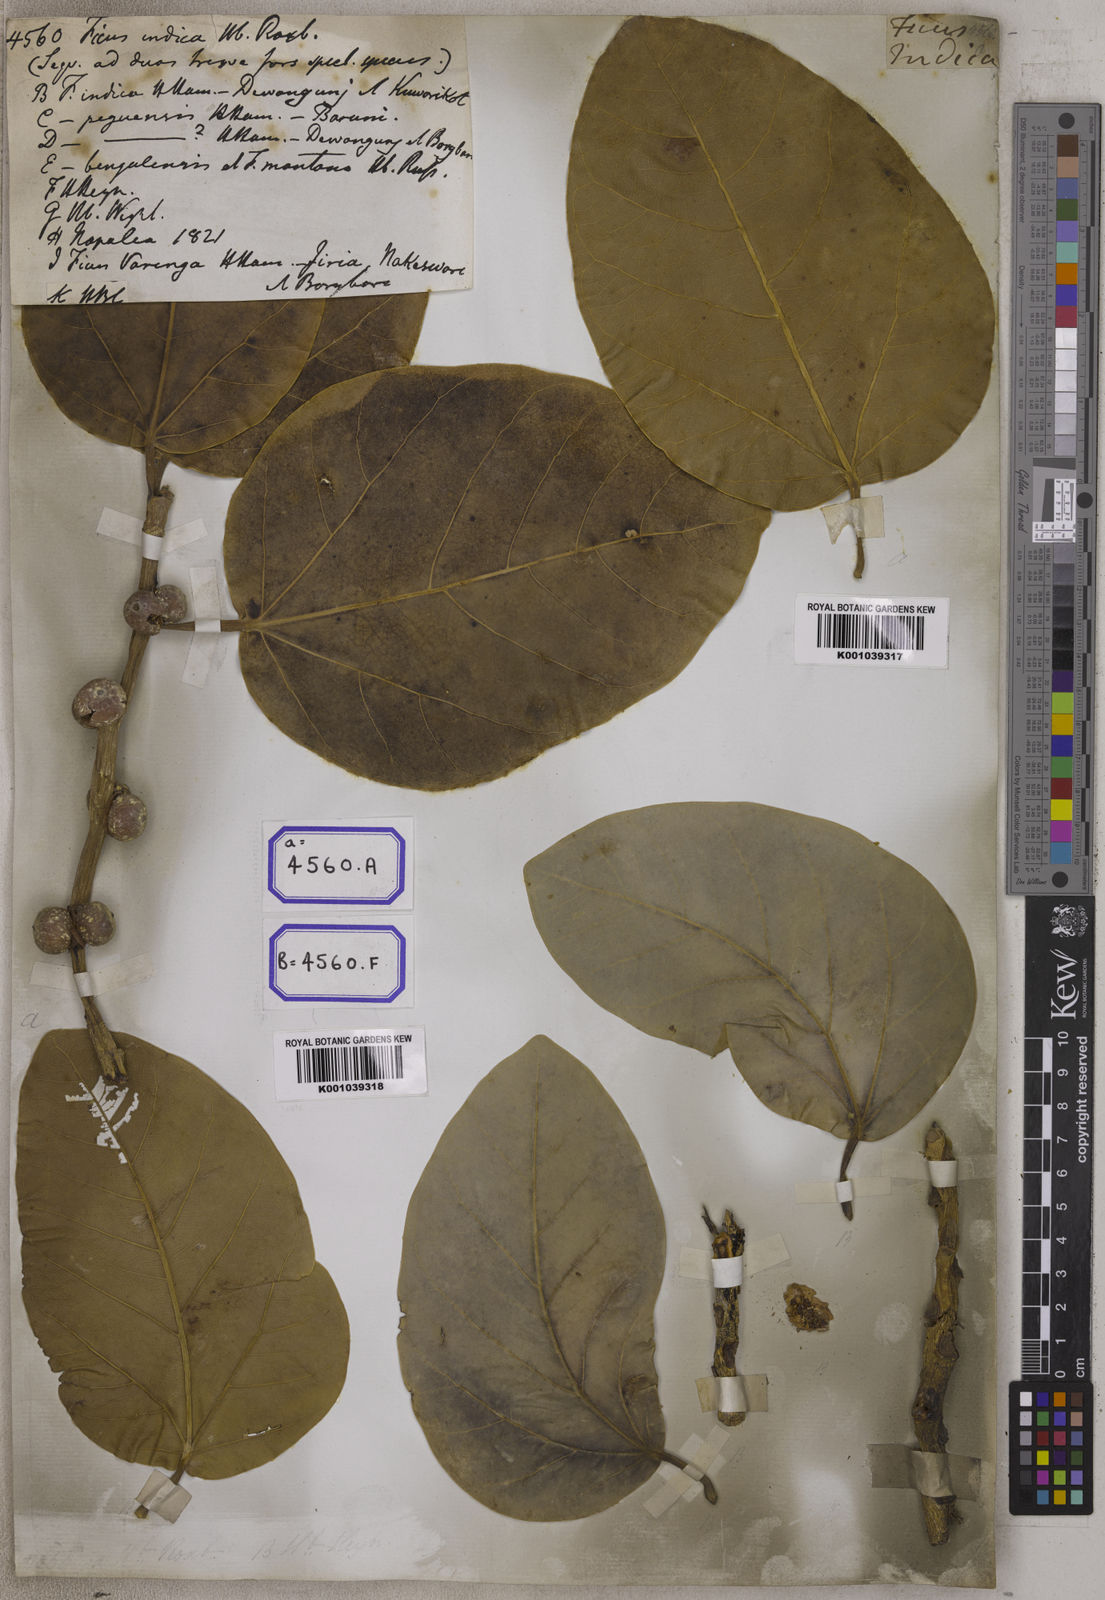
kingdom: Plantae
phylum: Tracheophyta
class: Magnoliopsida
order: Rosales
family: Moraceae
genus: Ficus
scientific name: Ficus
